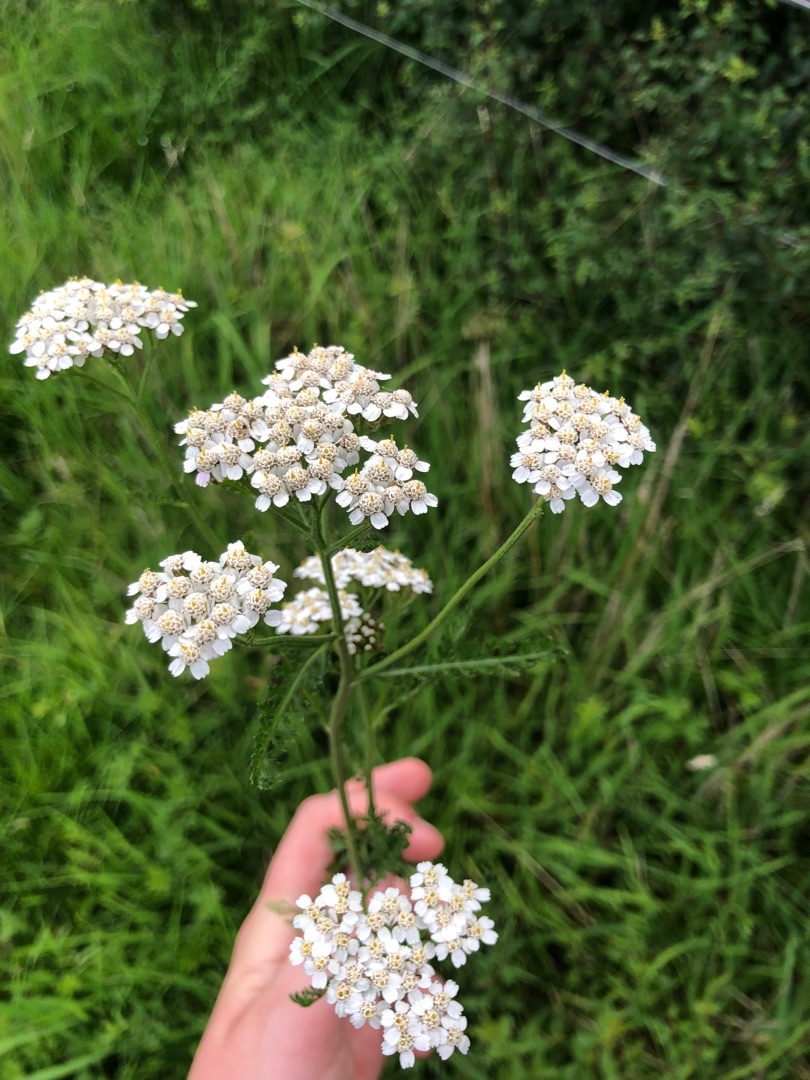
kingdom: Plantae
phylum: Tracheophyta
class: Magnoliopsida
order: Asterales
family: Asteraceae
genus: Achillea
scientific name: Achillea millefolium
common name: Almindelig røllike
